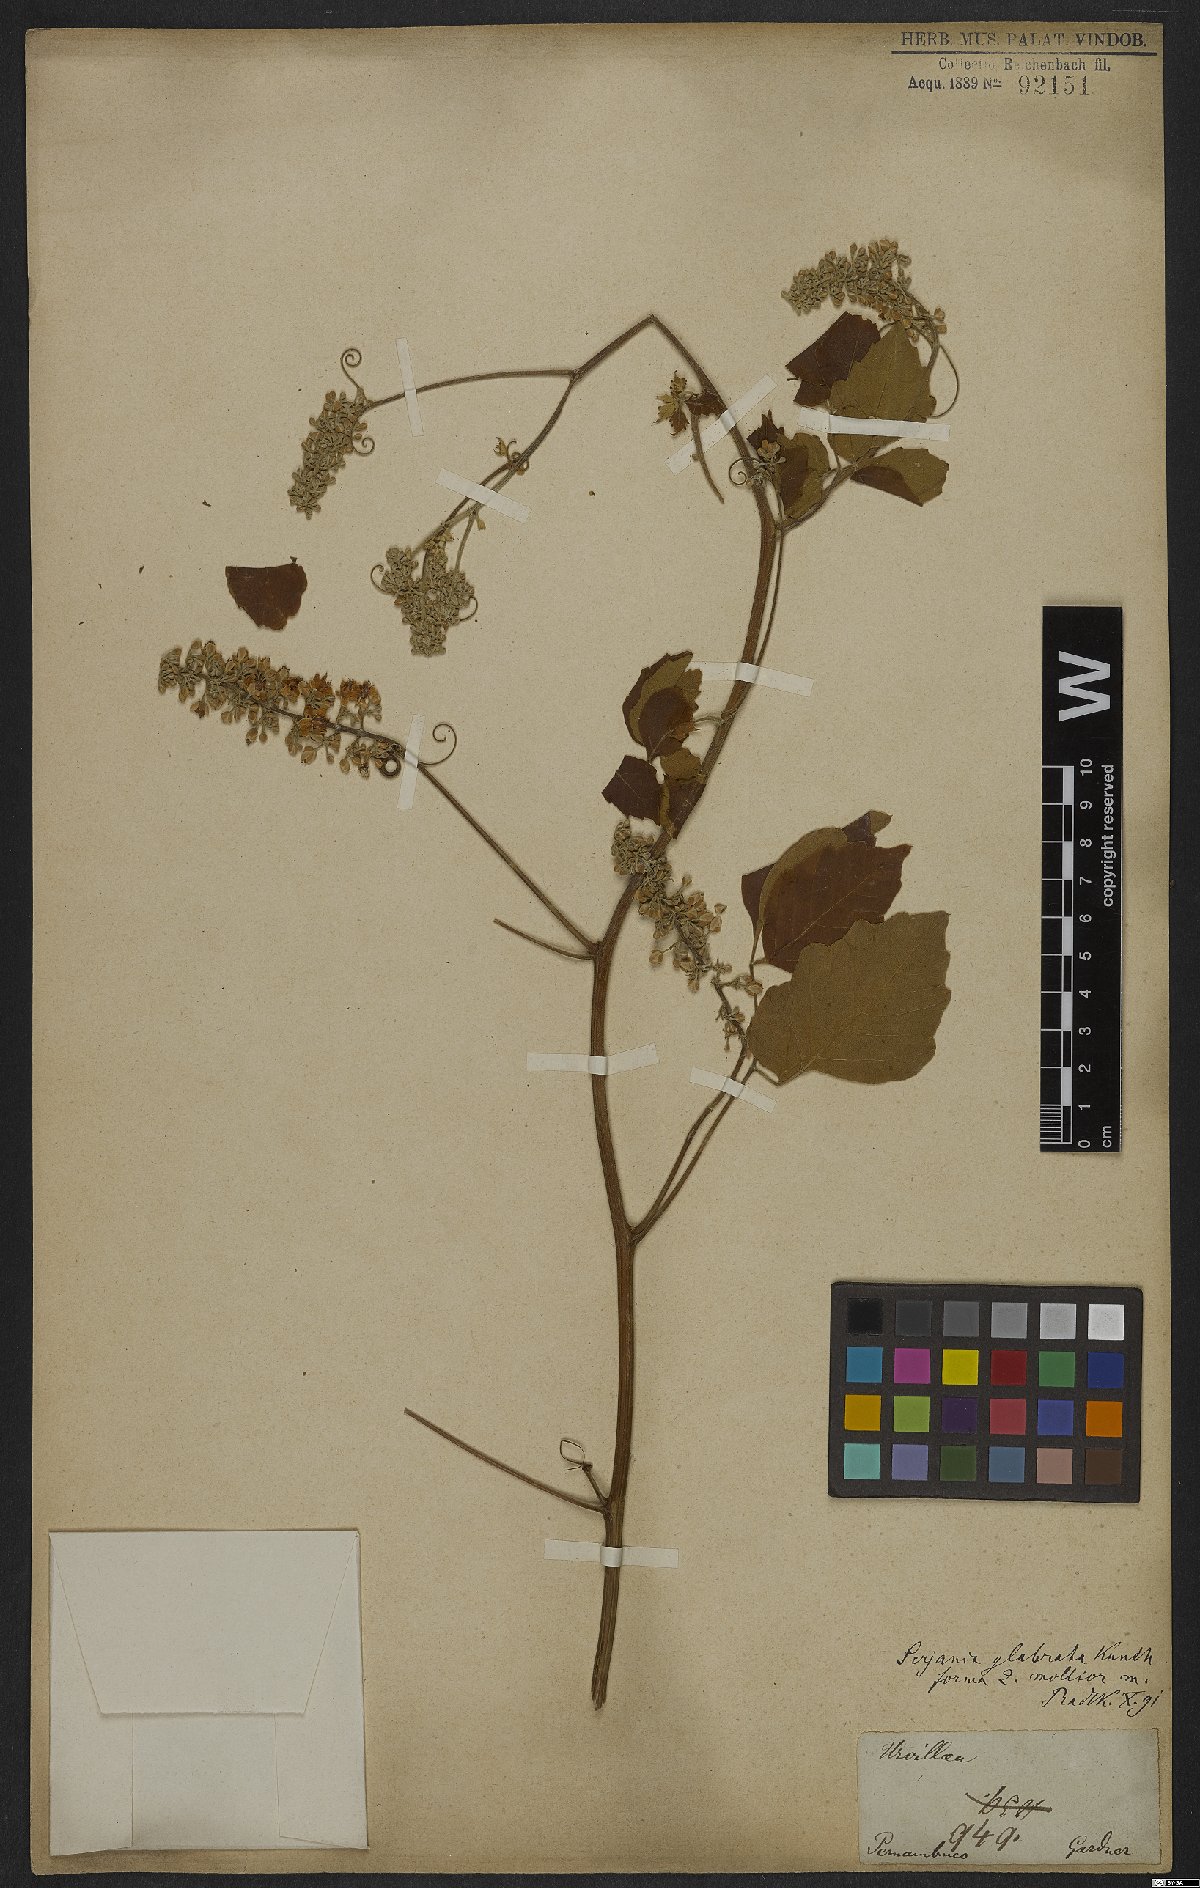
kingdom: Plantae
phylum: Tracheophyta
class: Magnoliopsida
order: Sapindales
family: Sapindaceae
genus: Serjania
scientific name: Serjania glabrata
